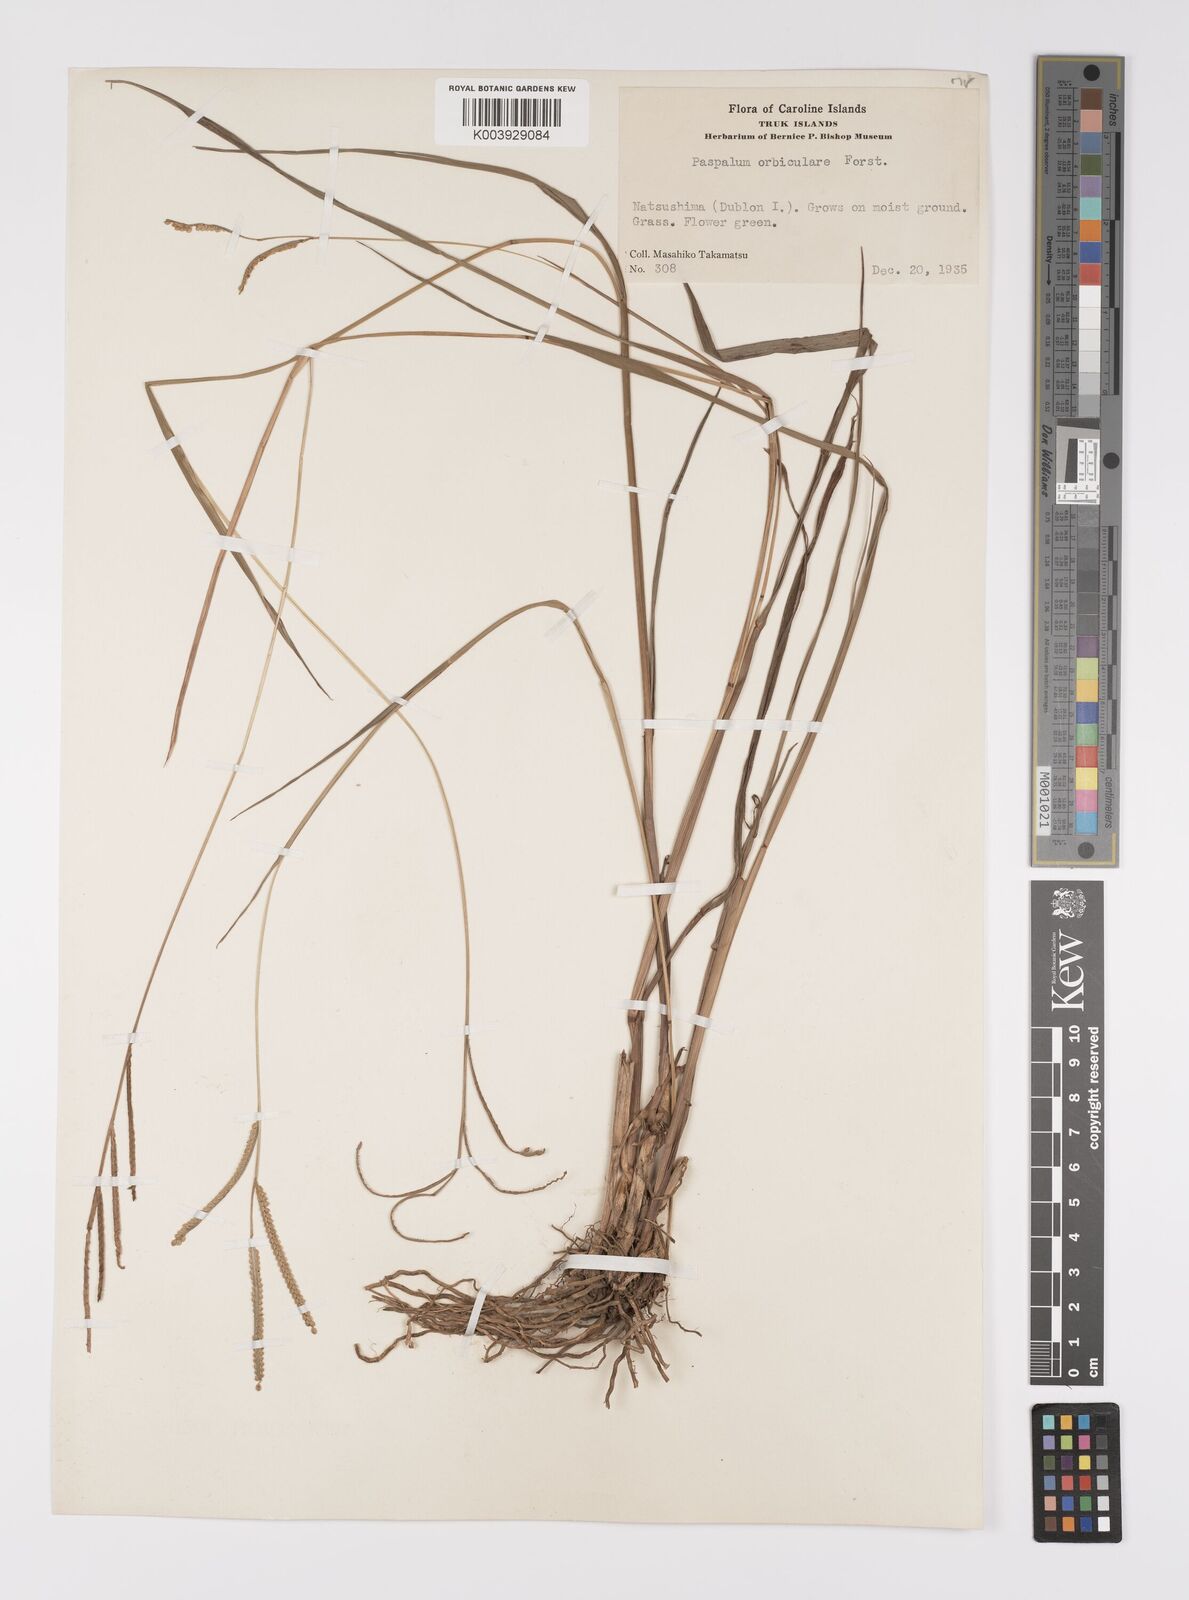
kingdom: Plantae
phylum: Tracheophyta
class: Liliopsida
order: Poales
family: Poaceae
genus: Paspalum
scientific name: Paspalum scrobiculatum
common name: Kodo millet
